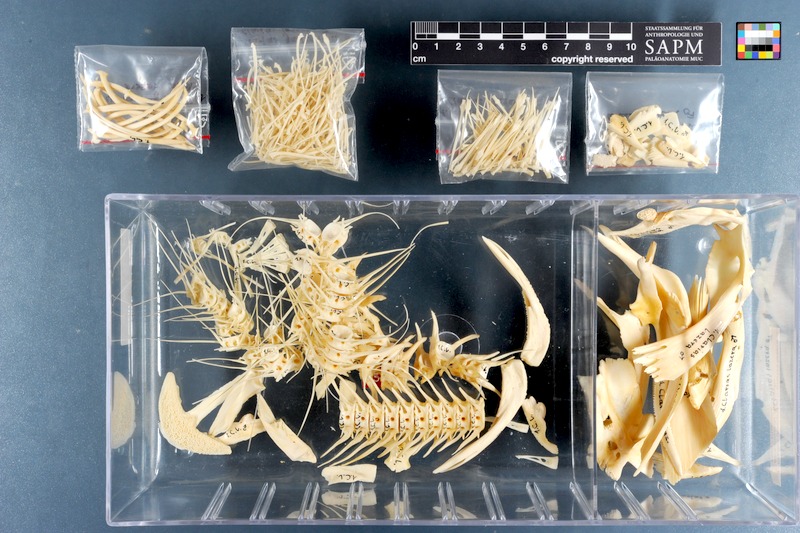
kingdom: Animalia
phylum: Chordata
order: Siluriformes
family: Clariidae
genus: Clarias
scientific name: Clarias gariepinus
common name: African catfish
